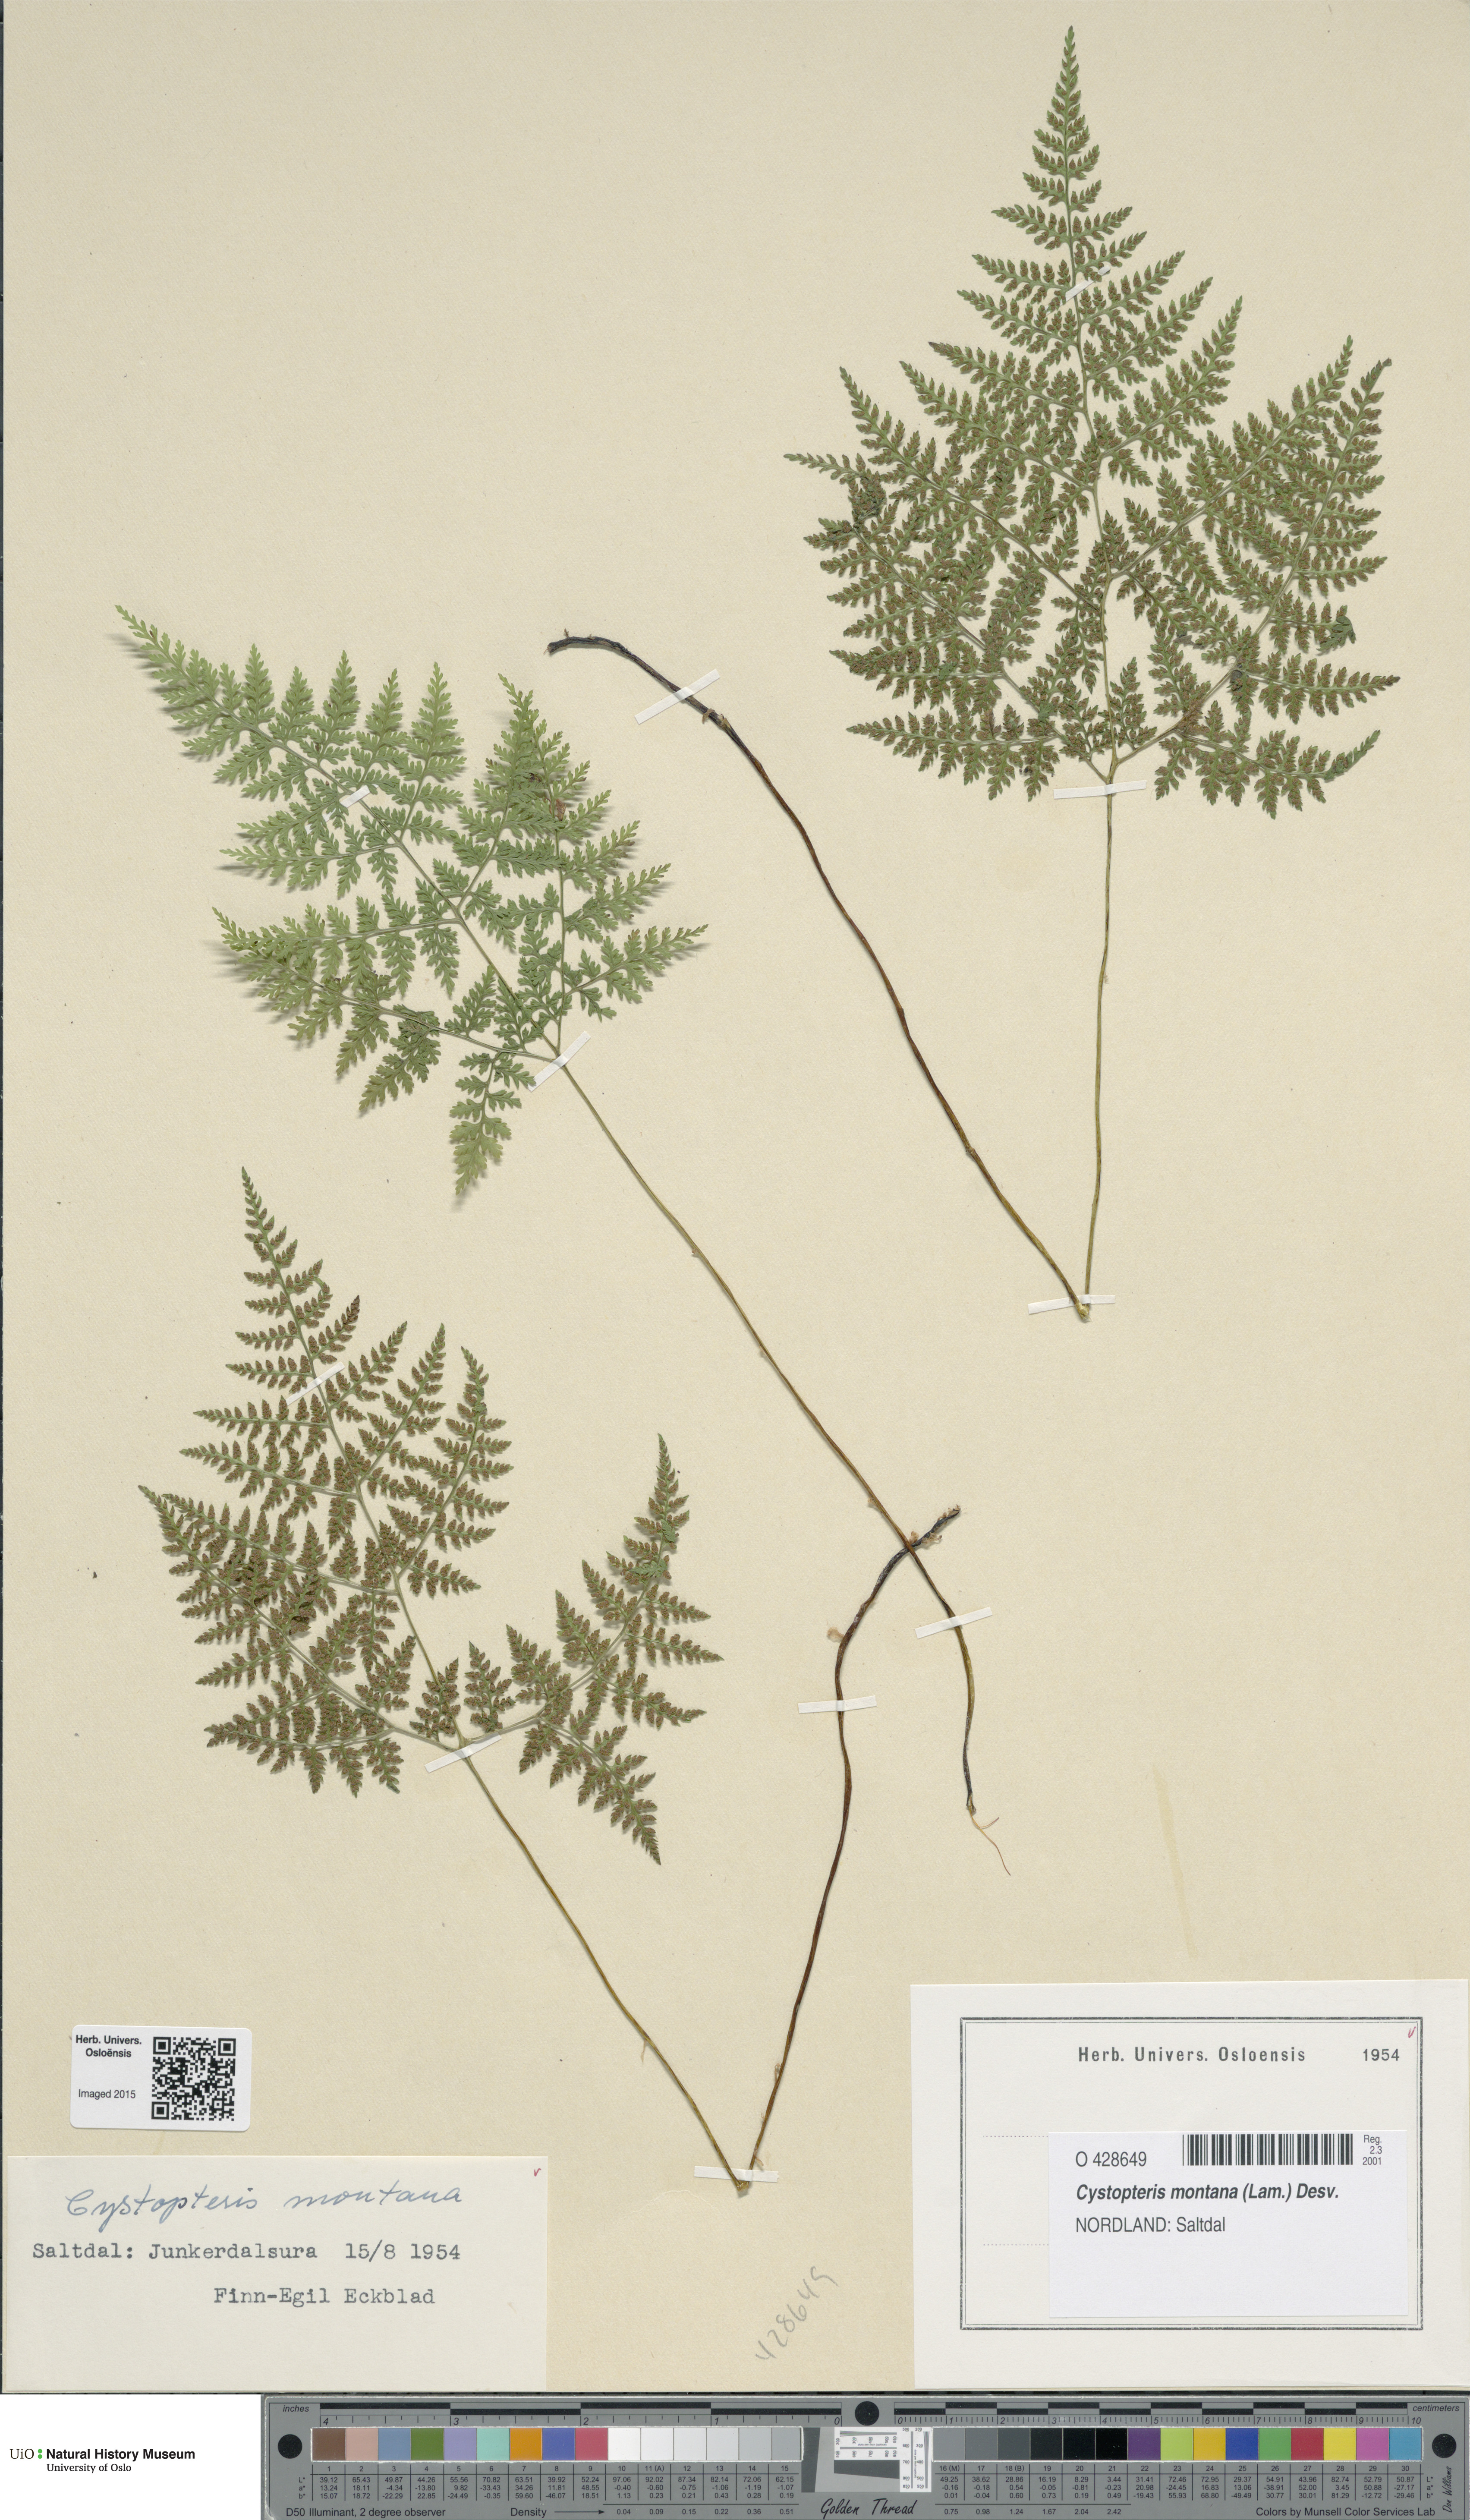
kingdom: Plantae
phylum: Tracheophyta
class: Polypodiopsida
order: Polypodiales
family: Cystopteridaceae
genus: Cystopteris
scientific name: Cystopteris montana
